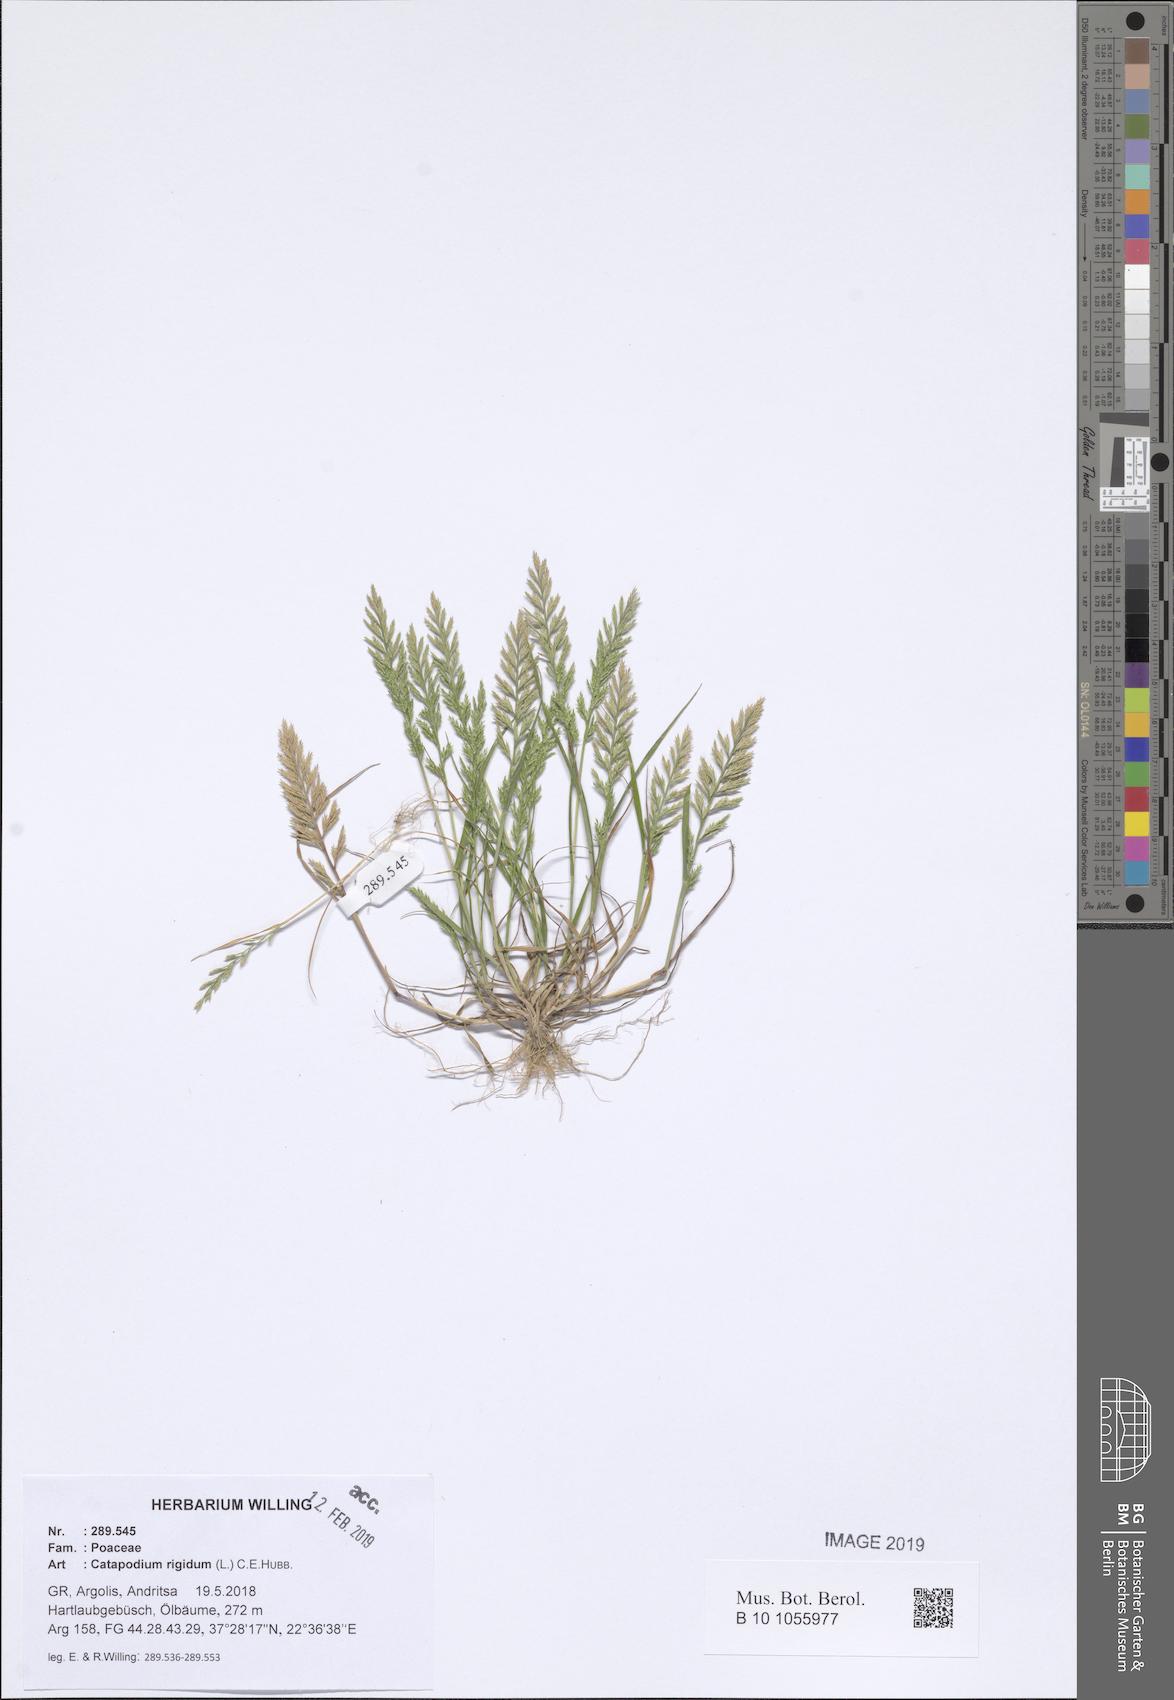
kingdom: Plantae
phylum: Tracheophyta
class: Liliopsida
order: Poales
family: Poaceae
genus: Catapodium
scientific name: Catapodium rigidum
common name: Fern-grass
